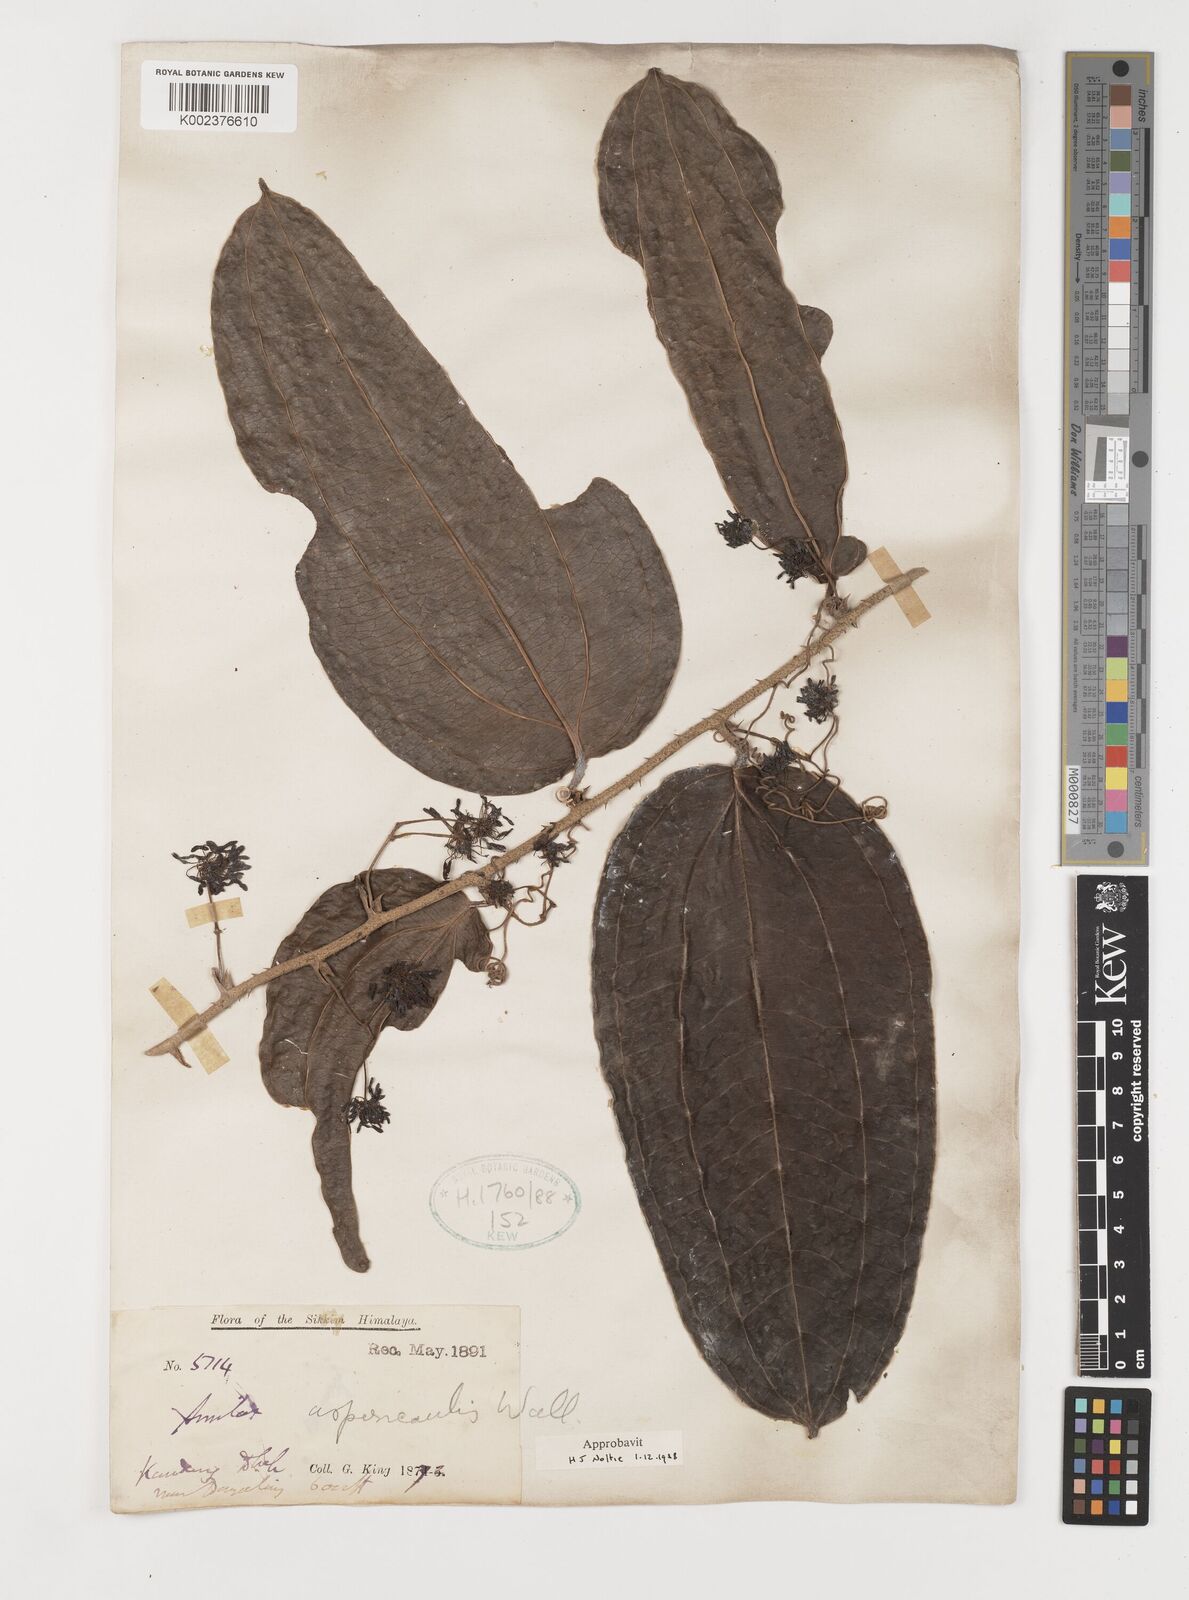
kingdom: Plantae
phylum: Tracheophyta
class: Liliopsida
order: Liliales
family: Smilacaceae
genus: Smilax
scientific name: Smilax aspericaulis
